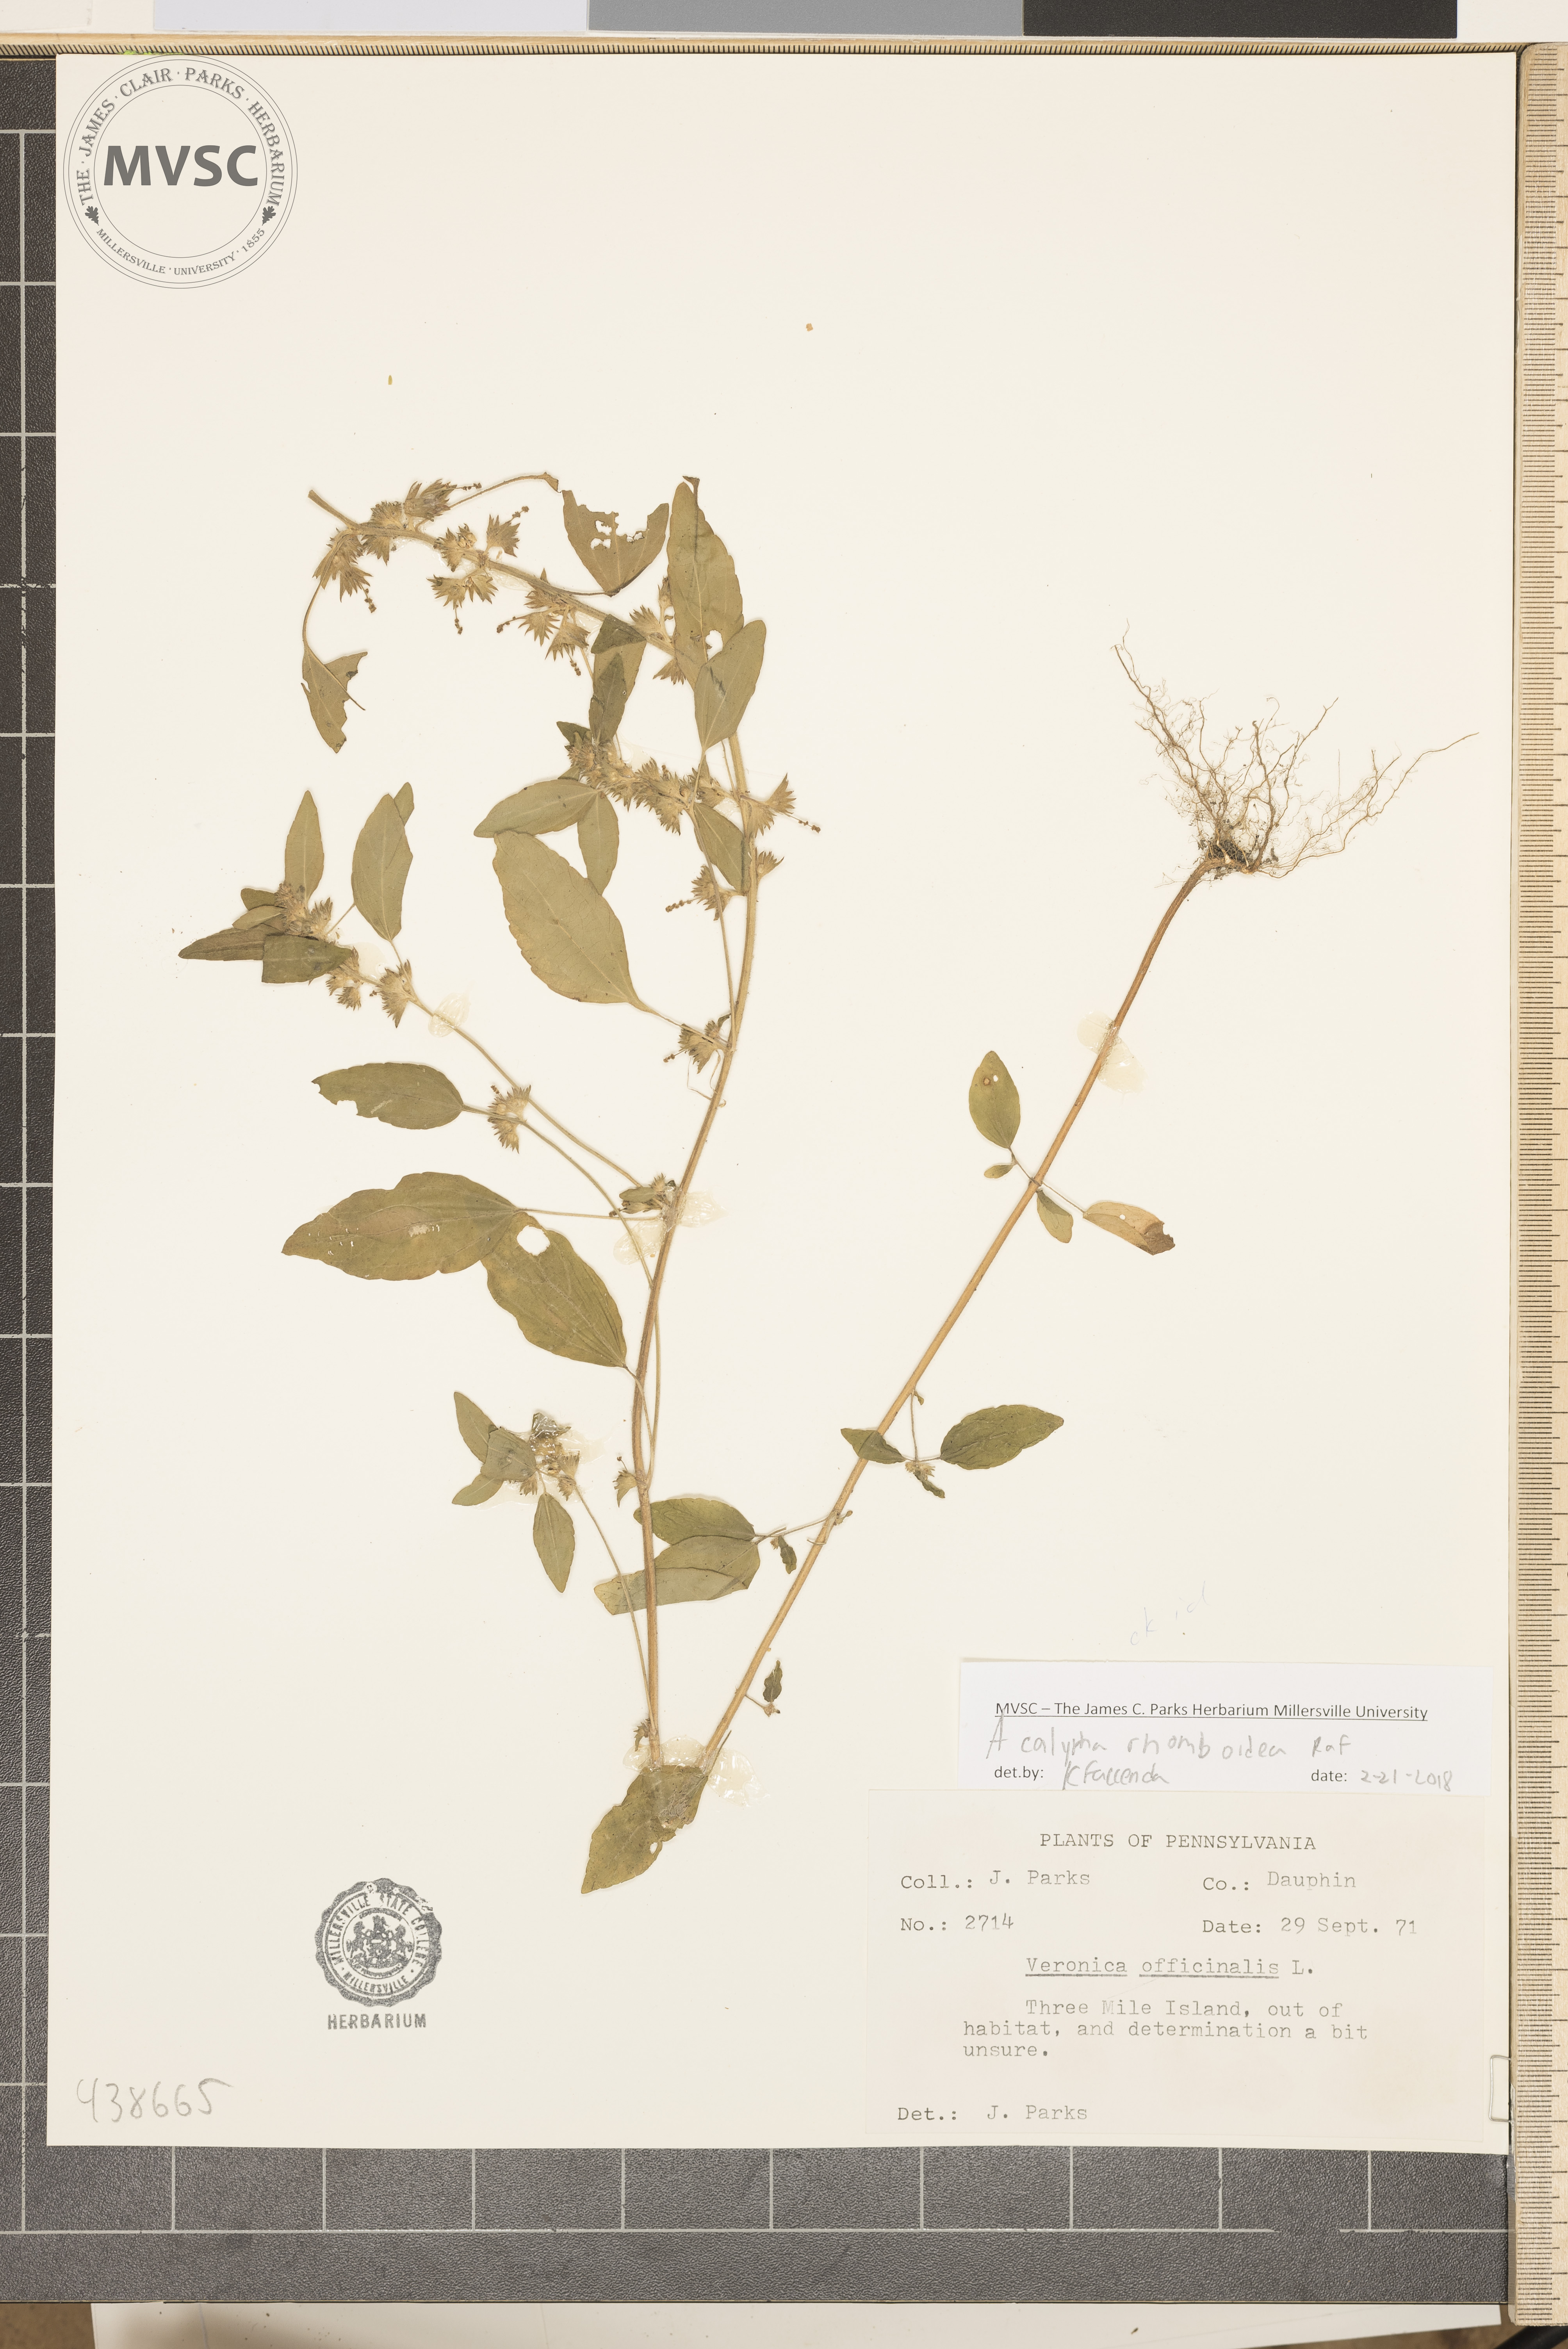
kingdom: Plantae
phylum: Tracheophyta
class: Magnoliopsida
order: Malpighiales
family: Euphorbiaceae
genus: Acalypha
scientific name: Acalypha rhomboidea
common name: three-seeded mercury
